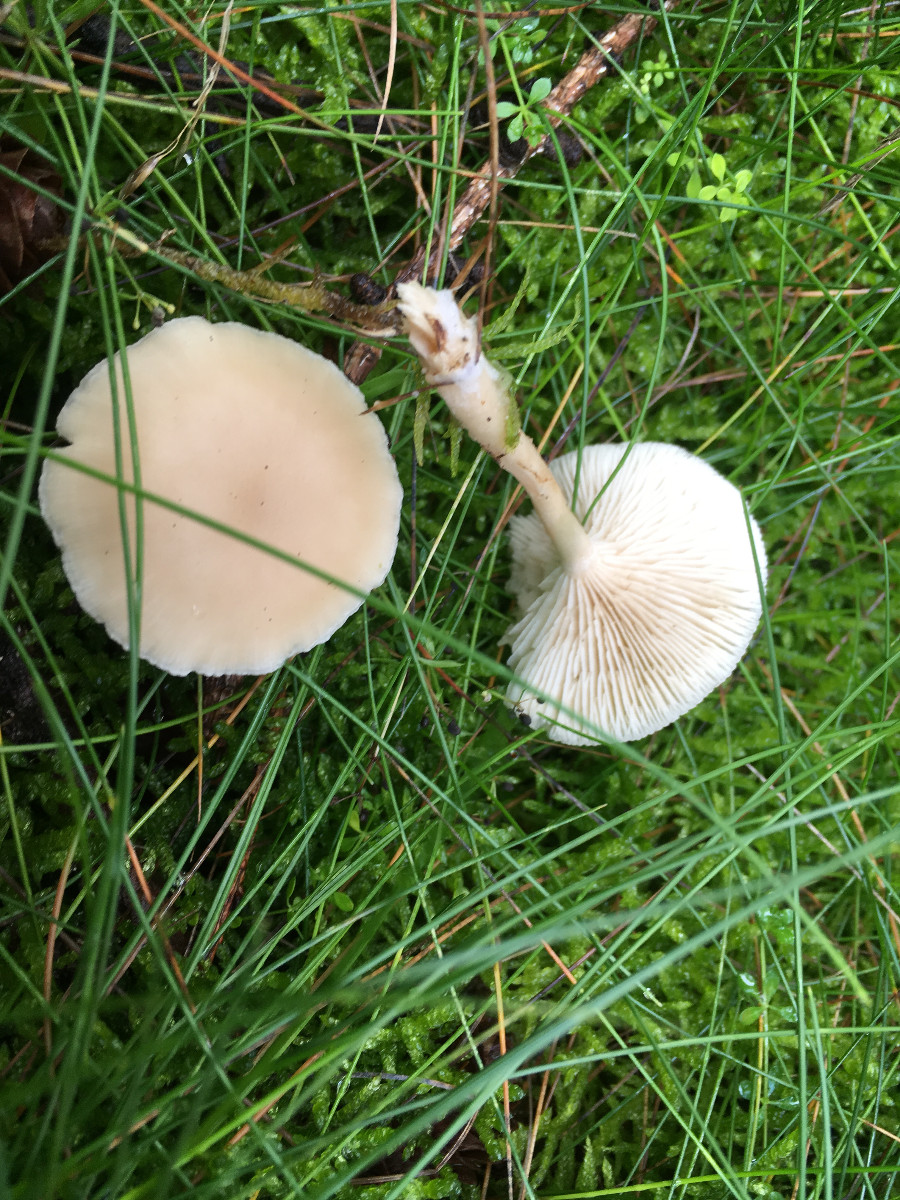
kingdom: Fungi
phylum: Basidiomycota
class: Agaricomycetes
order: Agaricales
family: Tricholomataceae
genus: Clitocybe
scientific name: Clitocybe
